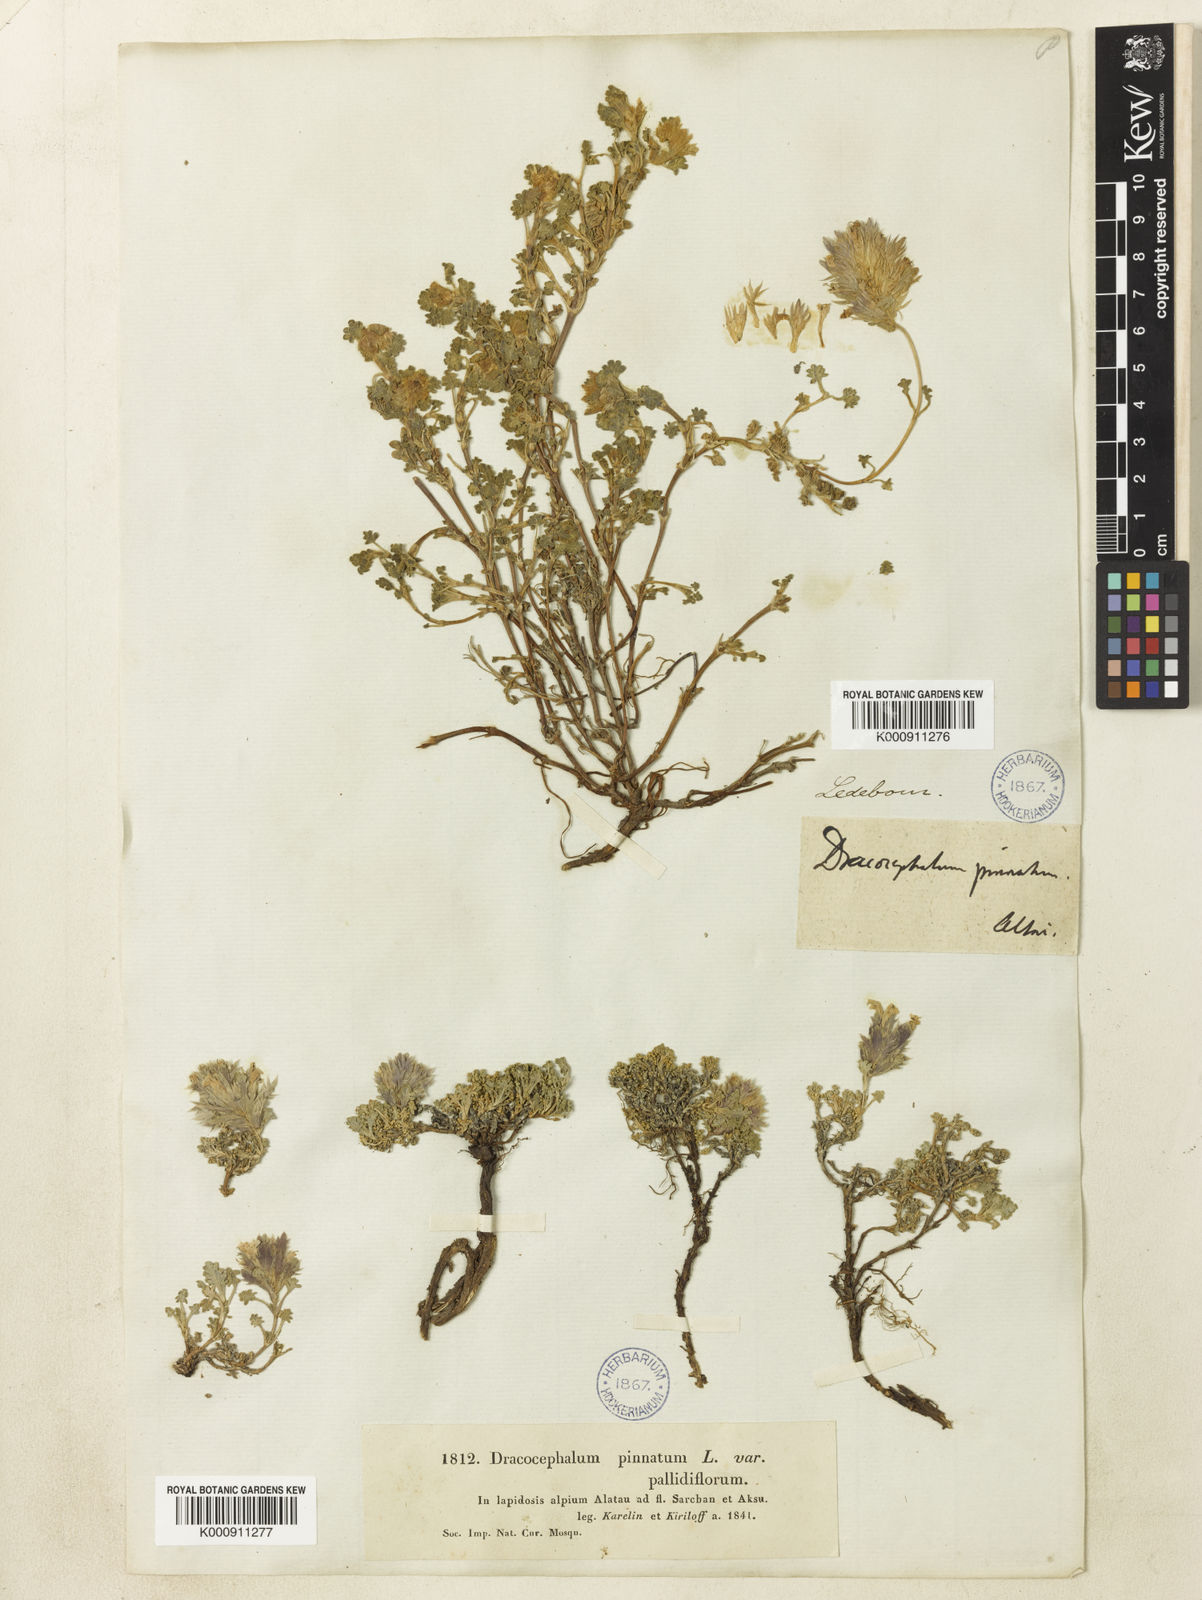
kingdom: Plantae
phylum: Tracheophyta
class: Magnoliopsida
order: Lamiales
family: Lamiaceae
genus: Dracocephalum
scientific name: Dracocephalum pinnatum
